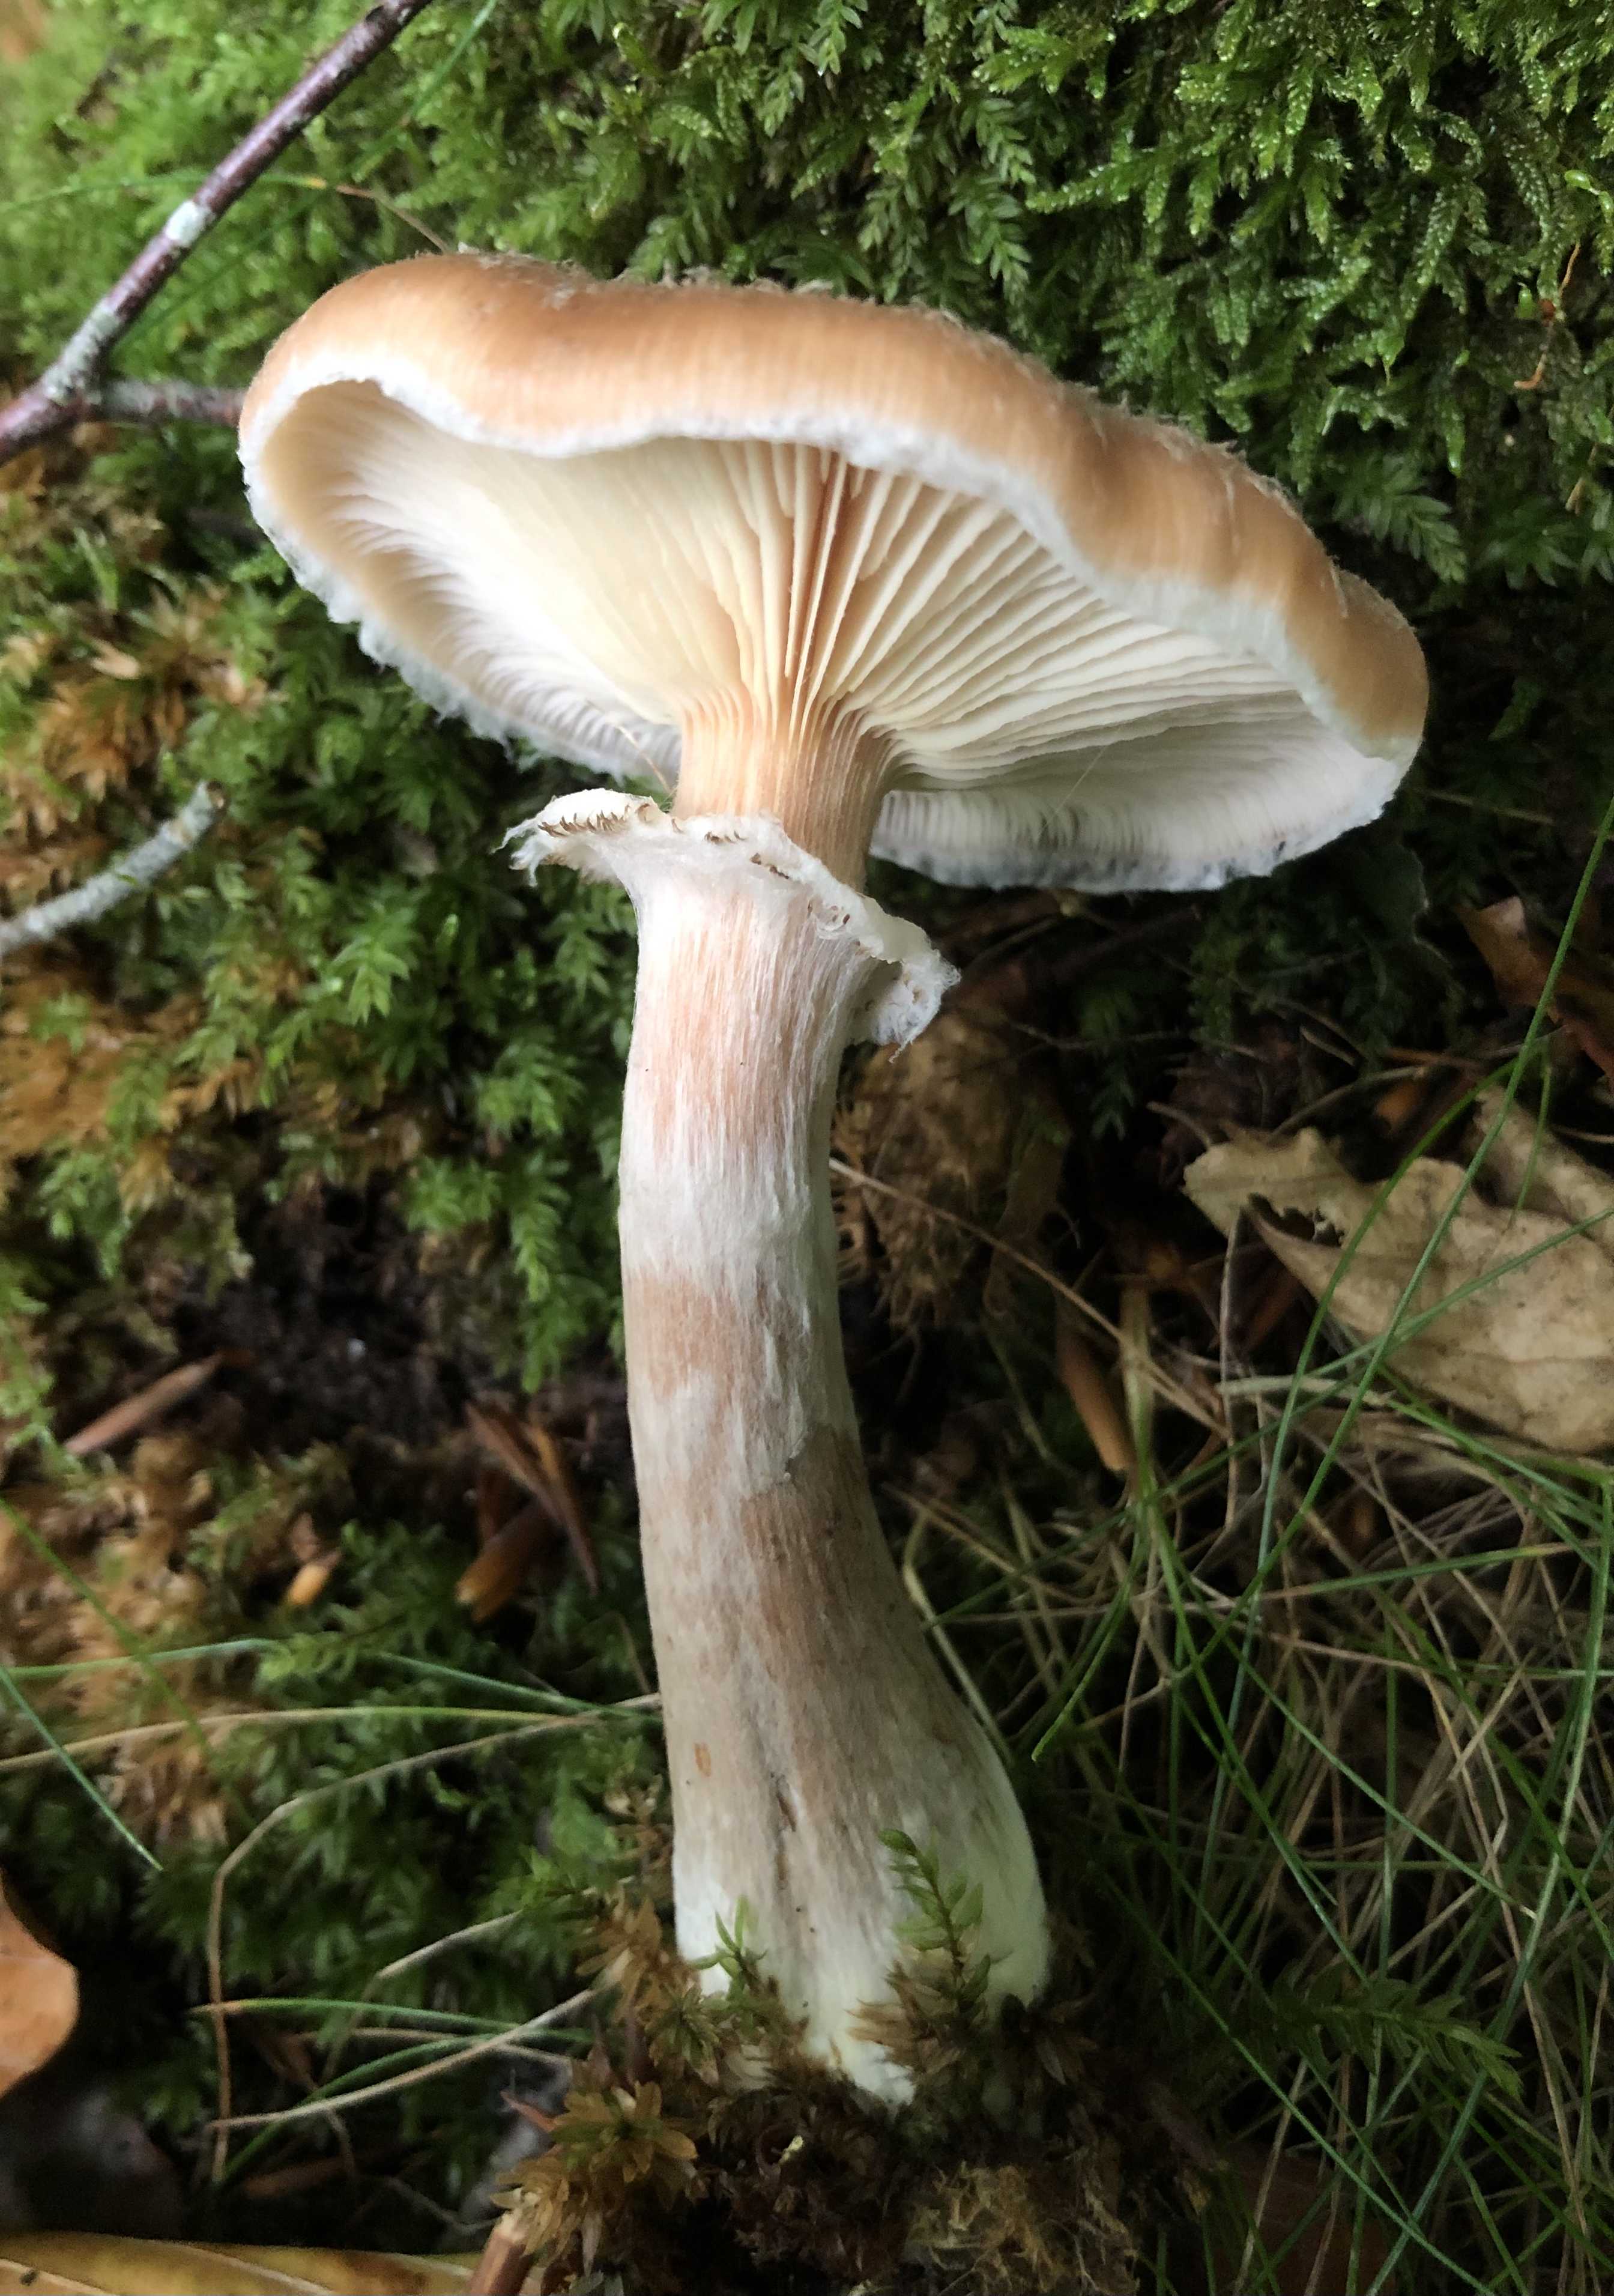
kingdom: Fungi
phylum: Basidiomycota
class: Agaricomycetes
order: Agaricales
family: Physalacriaceae
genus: Armillaria
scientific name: Armillaria lutea
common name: køllestokket honningsvamp
